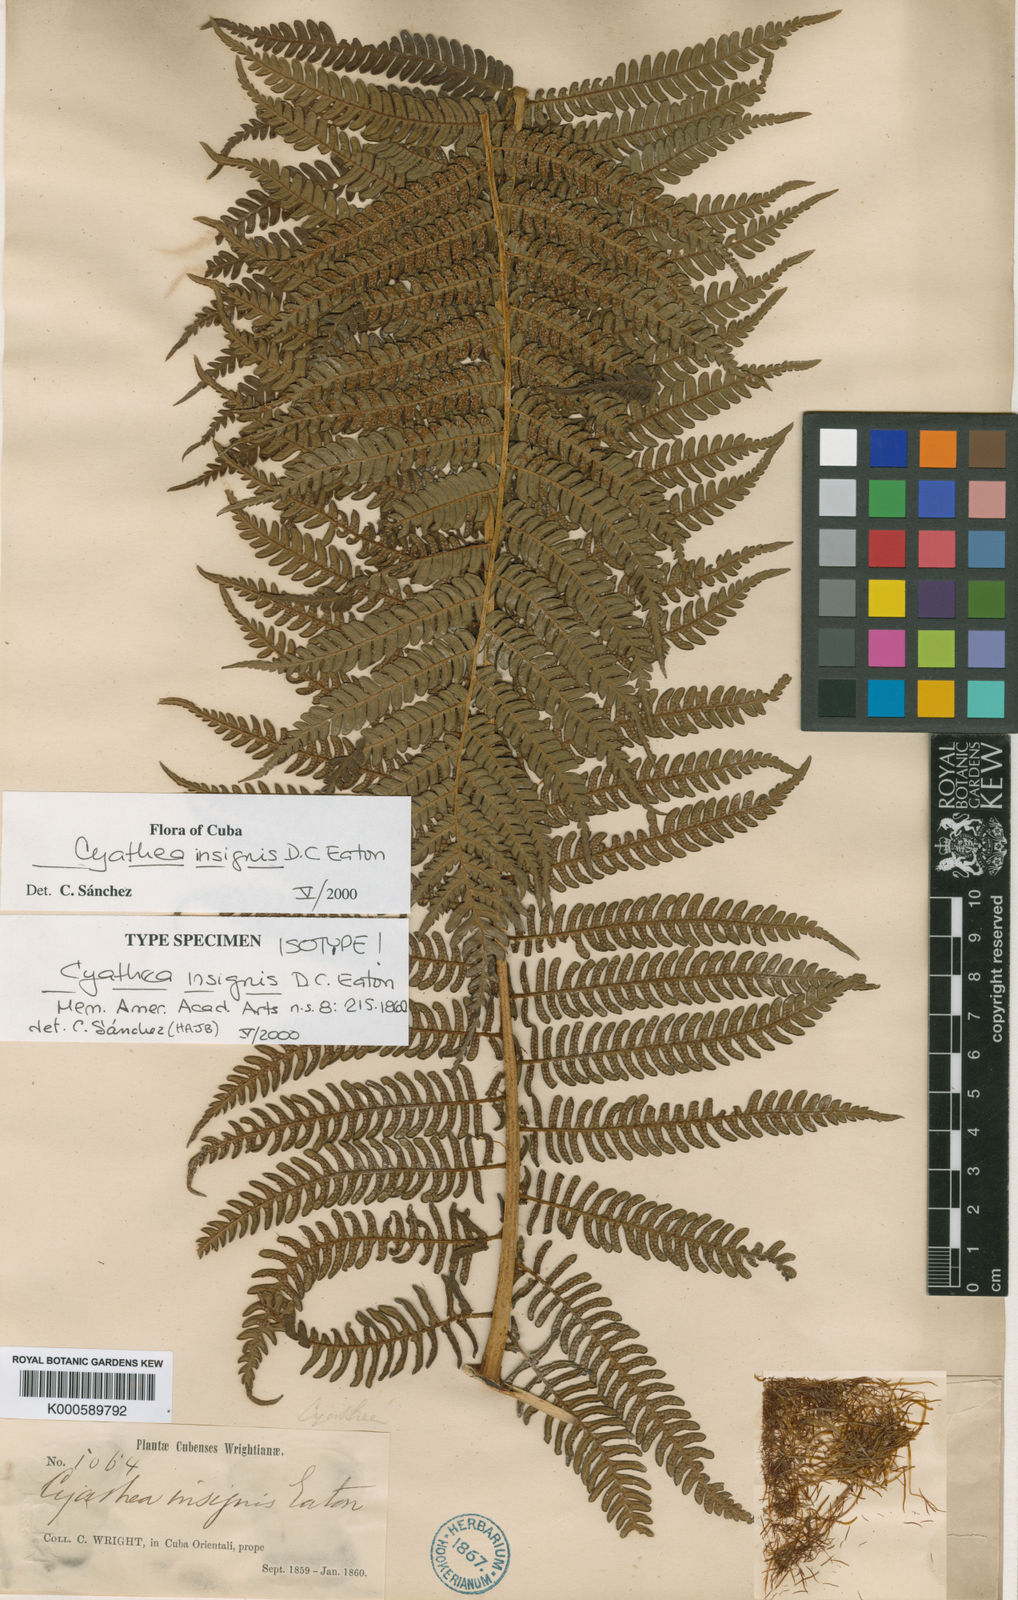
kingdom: Plantae
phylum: Tracheophyta
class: Polypodiopsida
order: Cyatheales
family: Cyatheaceae
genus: Sphaeropteris
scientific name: Sphaeropteris insignis
